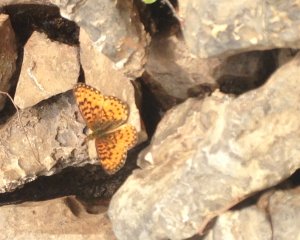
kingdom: Animalia
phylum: Arthropoda
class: Insecta
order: Lepidoptera
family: Nymphalidae
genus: Boloria
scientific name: Boloria selene
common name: Silver-bordered Fritillary
